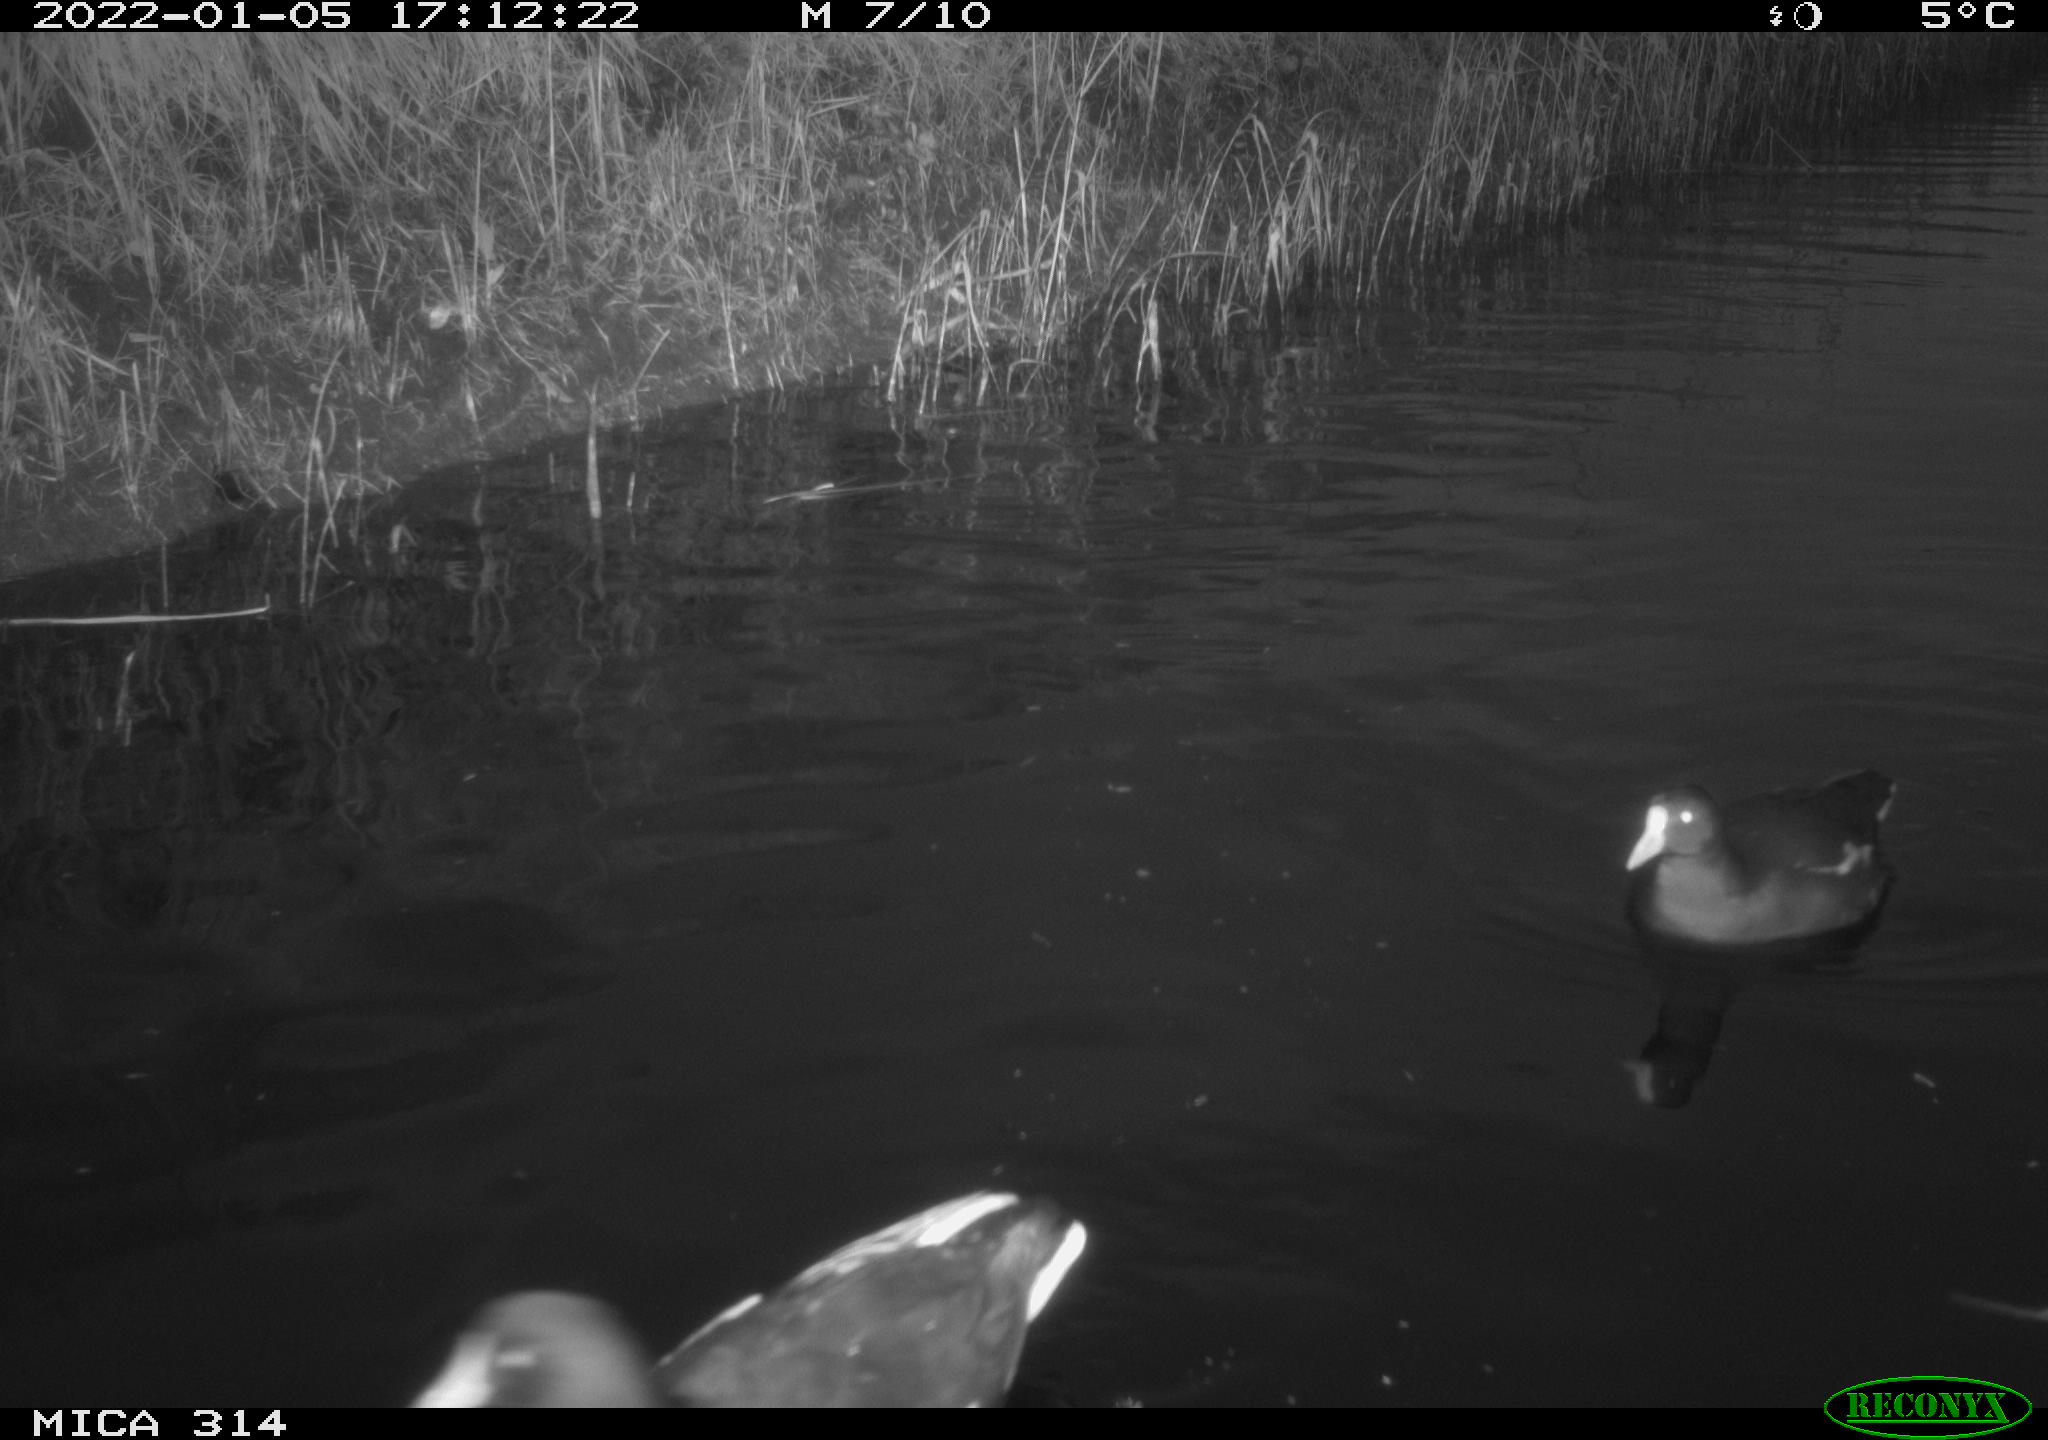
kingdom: Animalia
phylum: Chordata
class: Aves
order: Gruiformes
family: Rallidae
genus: Fulica
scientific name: Fulica atra
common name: Eurasian coot
